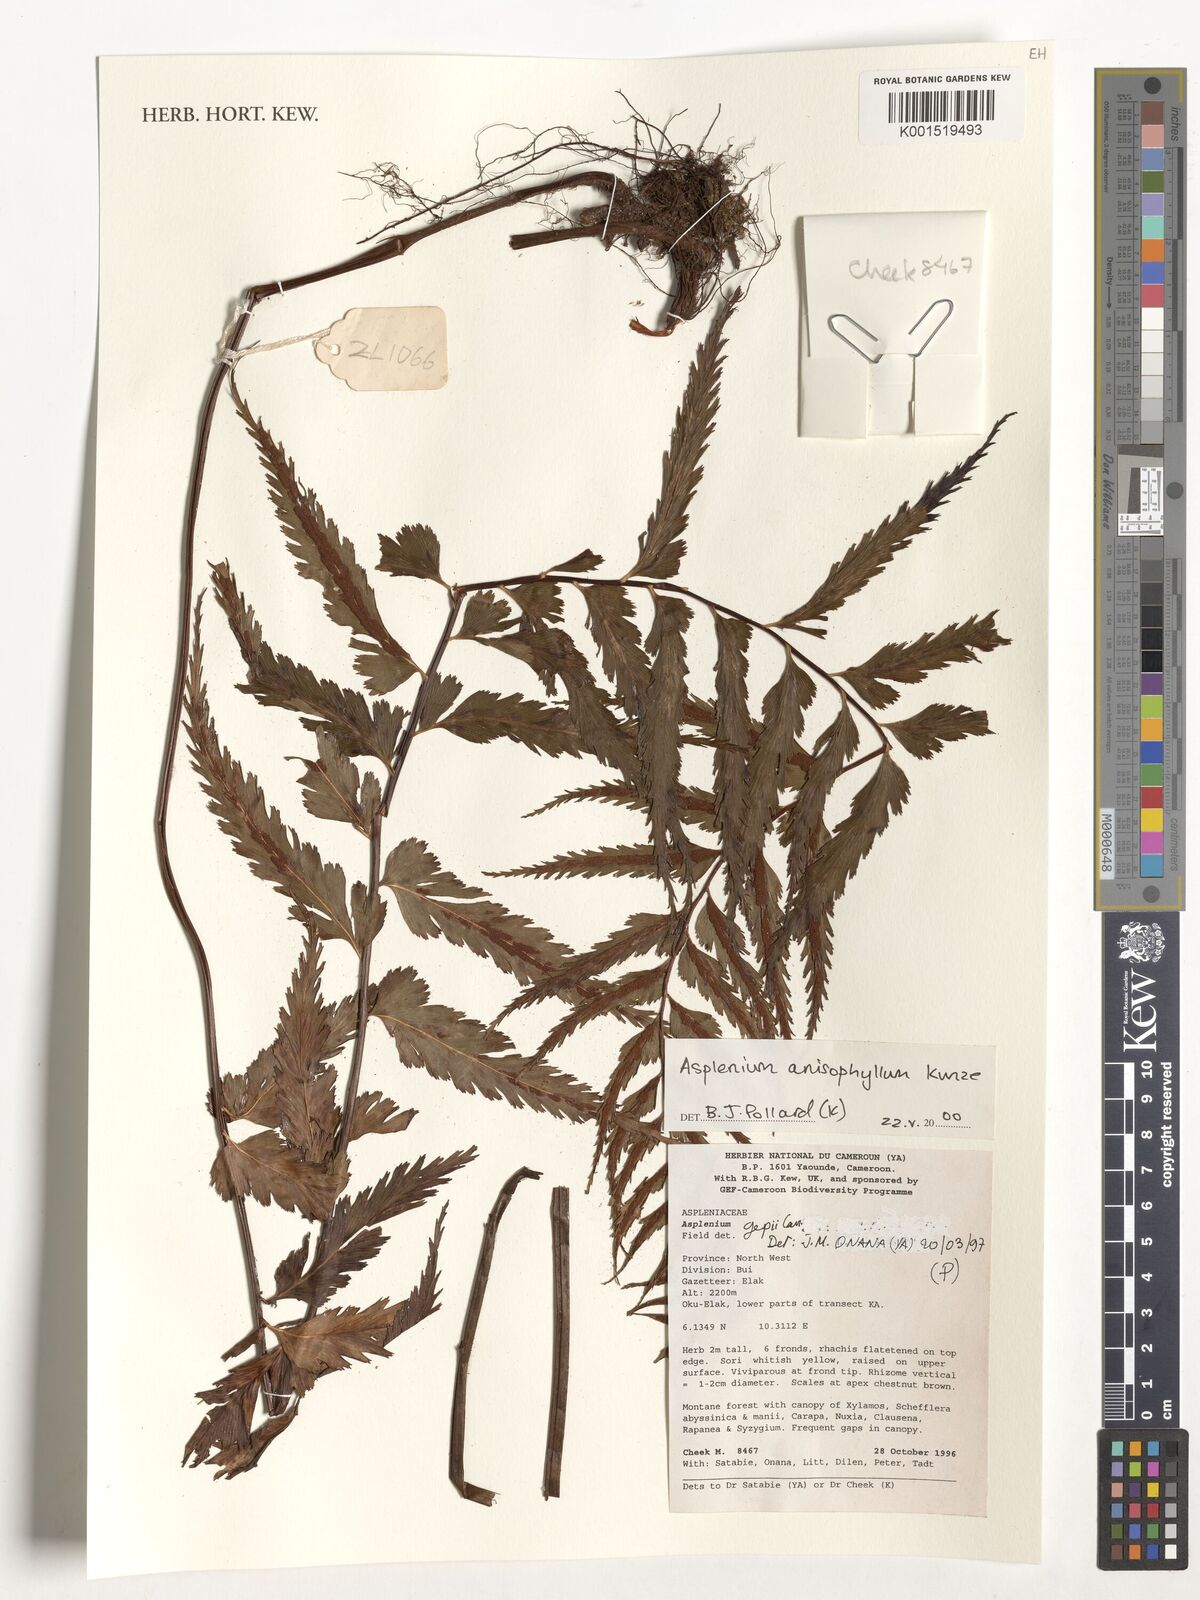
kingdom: Plantae
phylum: Tracheophyta
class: Polypodiopsida
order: Polypodiales
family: Aspleniaceae
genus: Asplenium
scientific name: Asplenium anisophyllum
